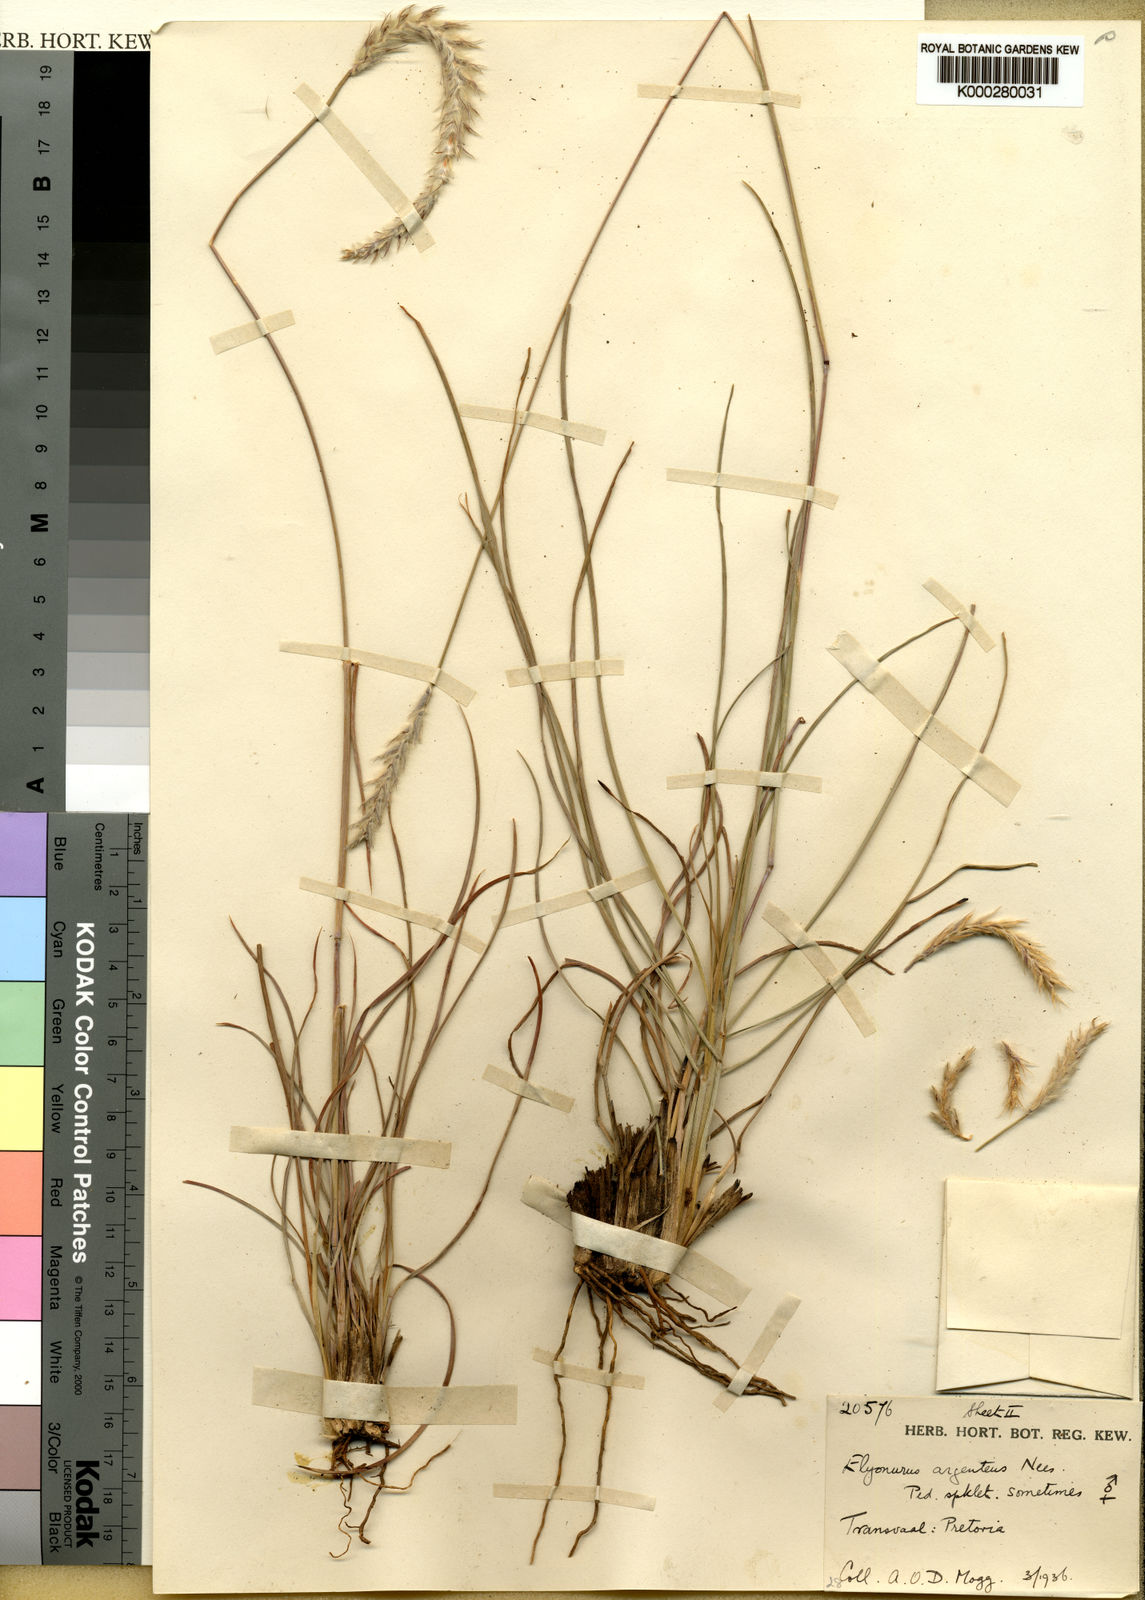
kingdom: Plantae
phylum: Tracheophyta
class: Liliopsida
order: Poales
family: Poaceae
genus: Elionurus
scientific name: Elionurus muticus
